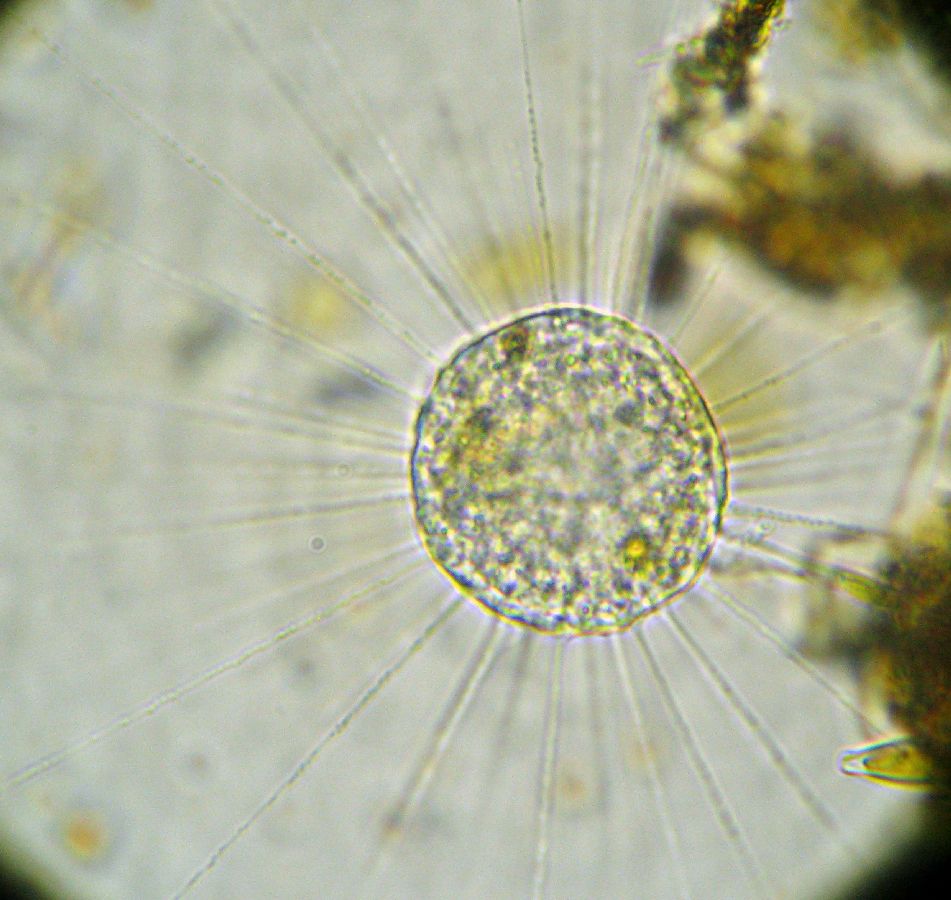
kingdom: Chromista
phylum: Ochrophyta
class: Raphidophyceae
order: Actinophryida
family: Actinophryidae
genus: Actinophrys
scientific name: Actinophrys sol
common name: солнечник
